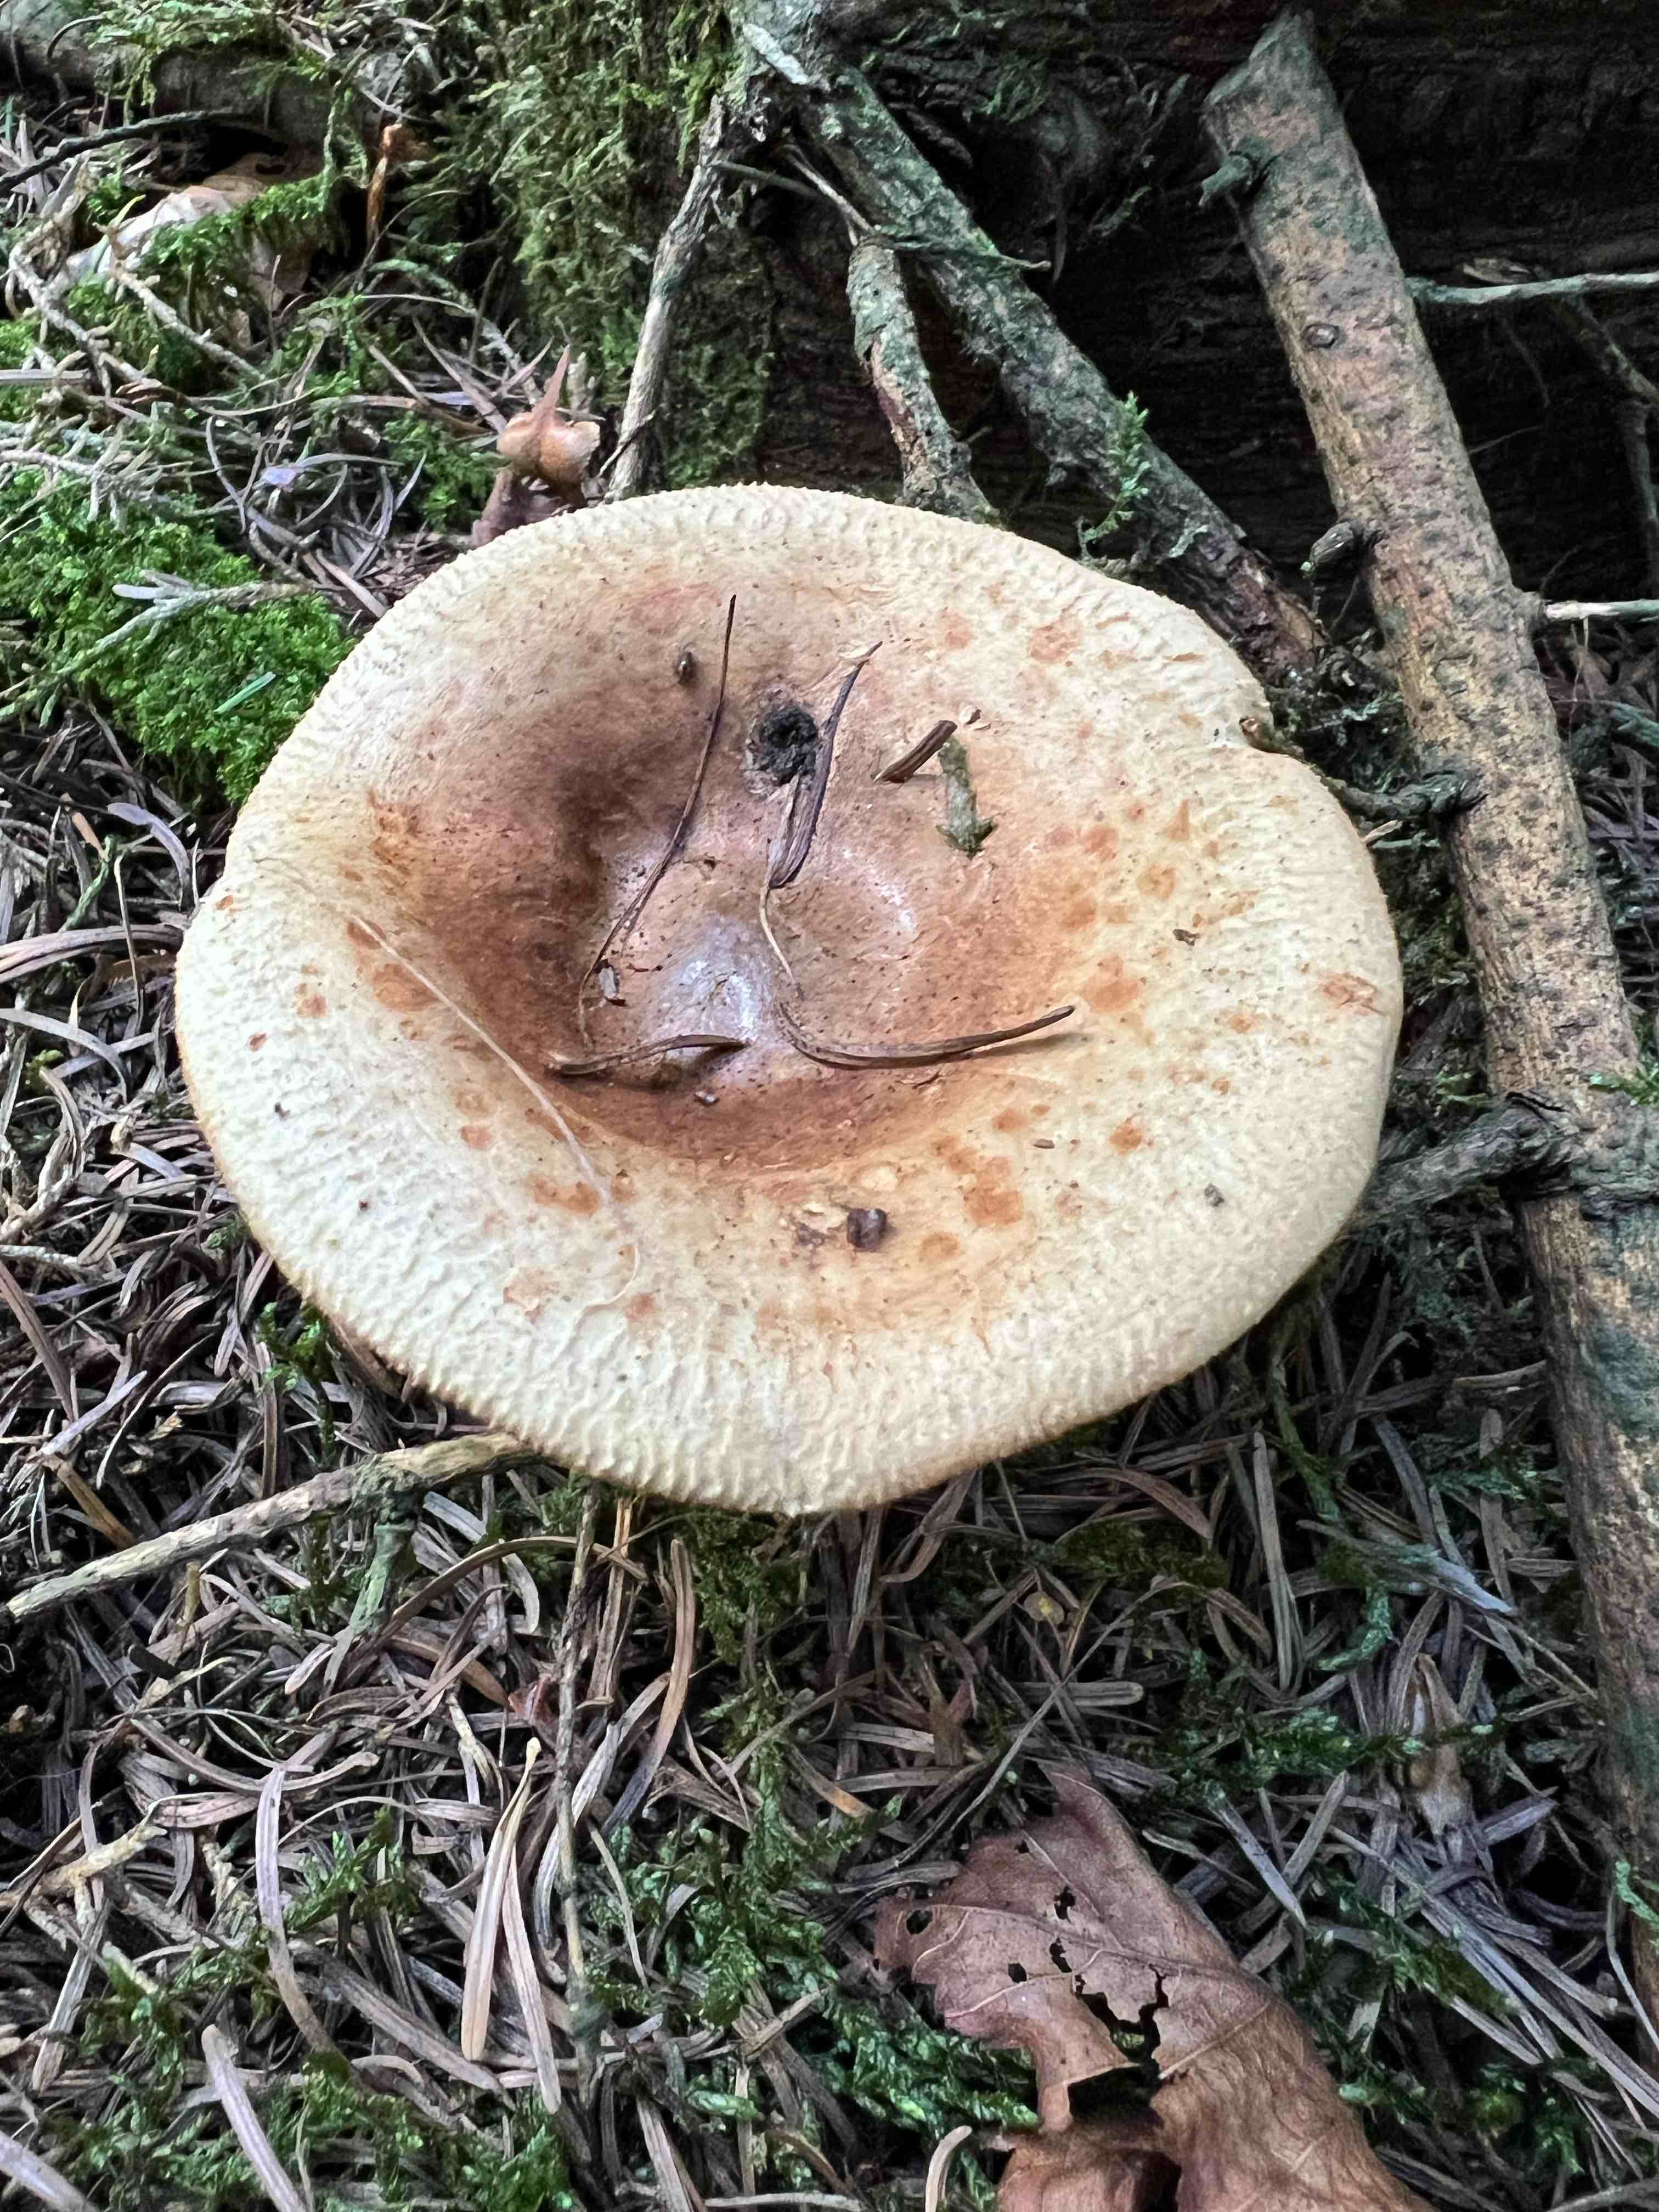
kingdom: Fungi
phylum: Basidiomycota
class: Agaricomycetes
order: Boletales
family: Paxillaceae
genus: Paxillus
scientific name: Paxillus involutus
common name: almindelig netbladhat
